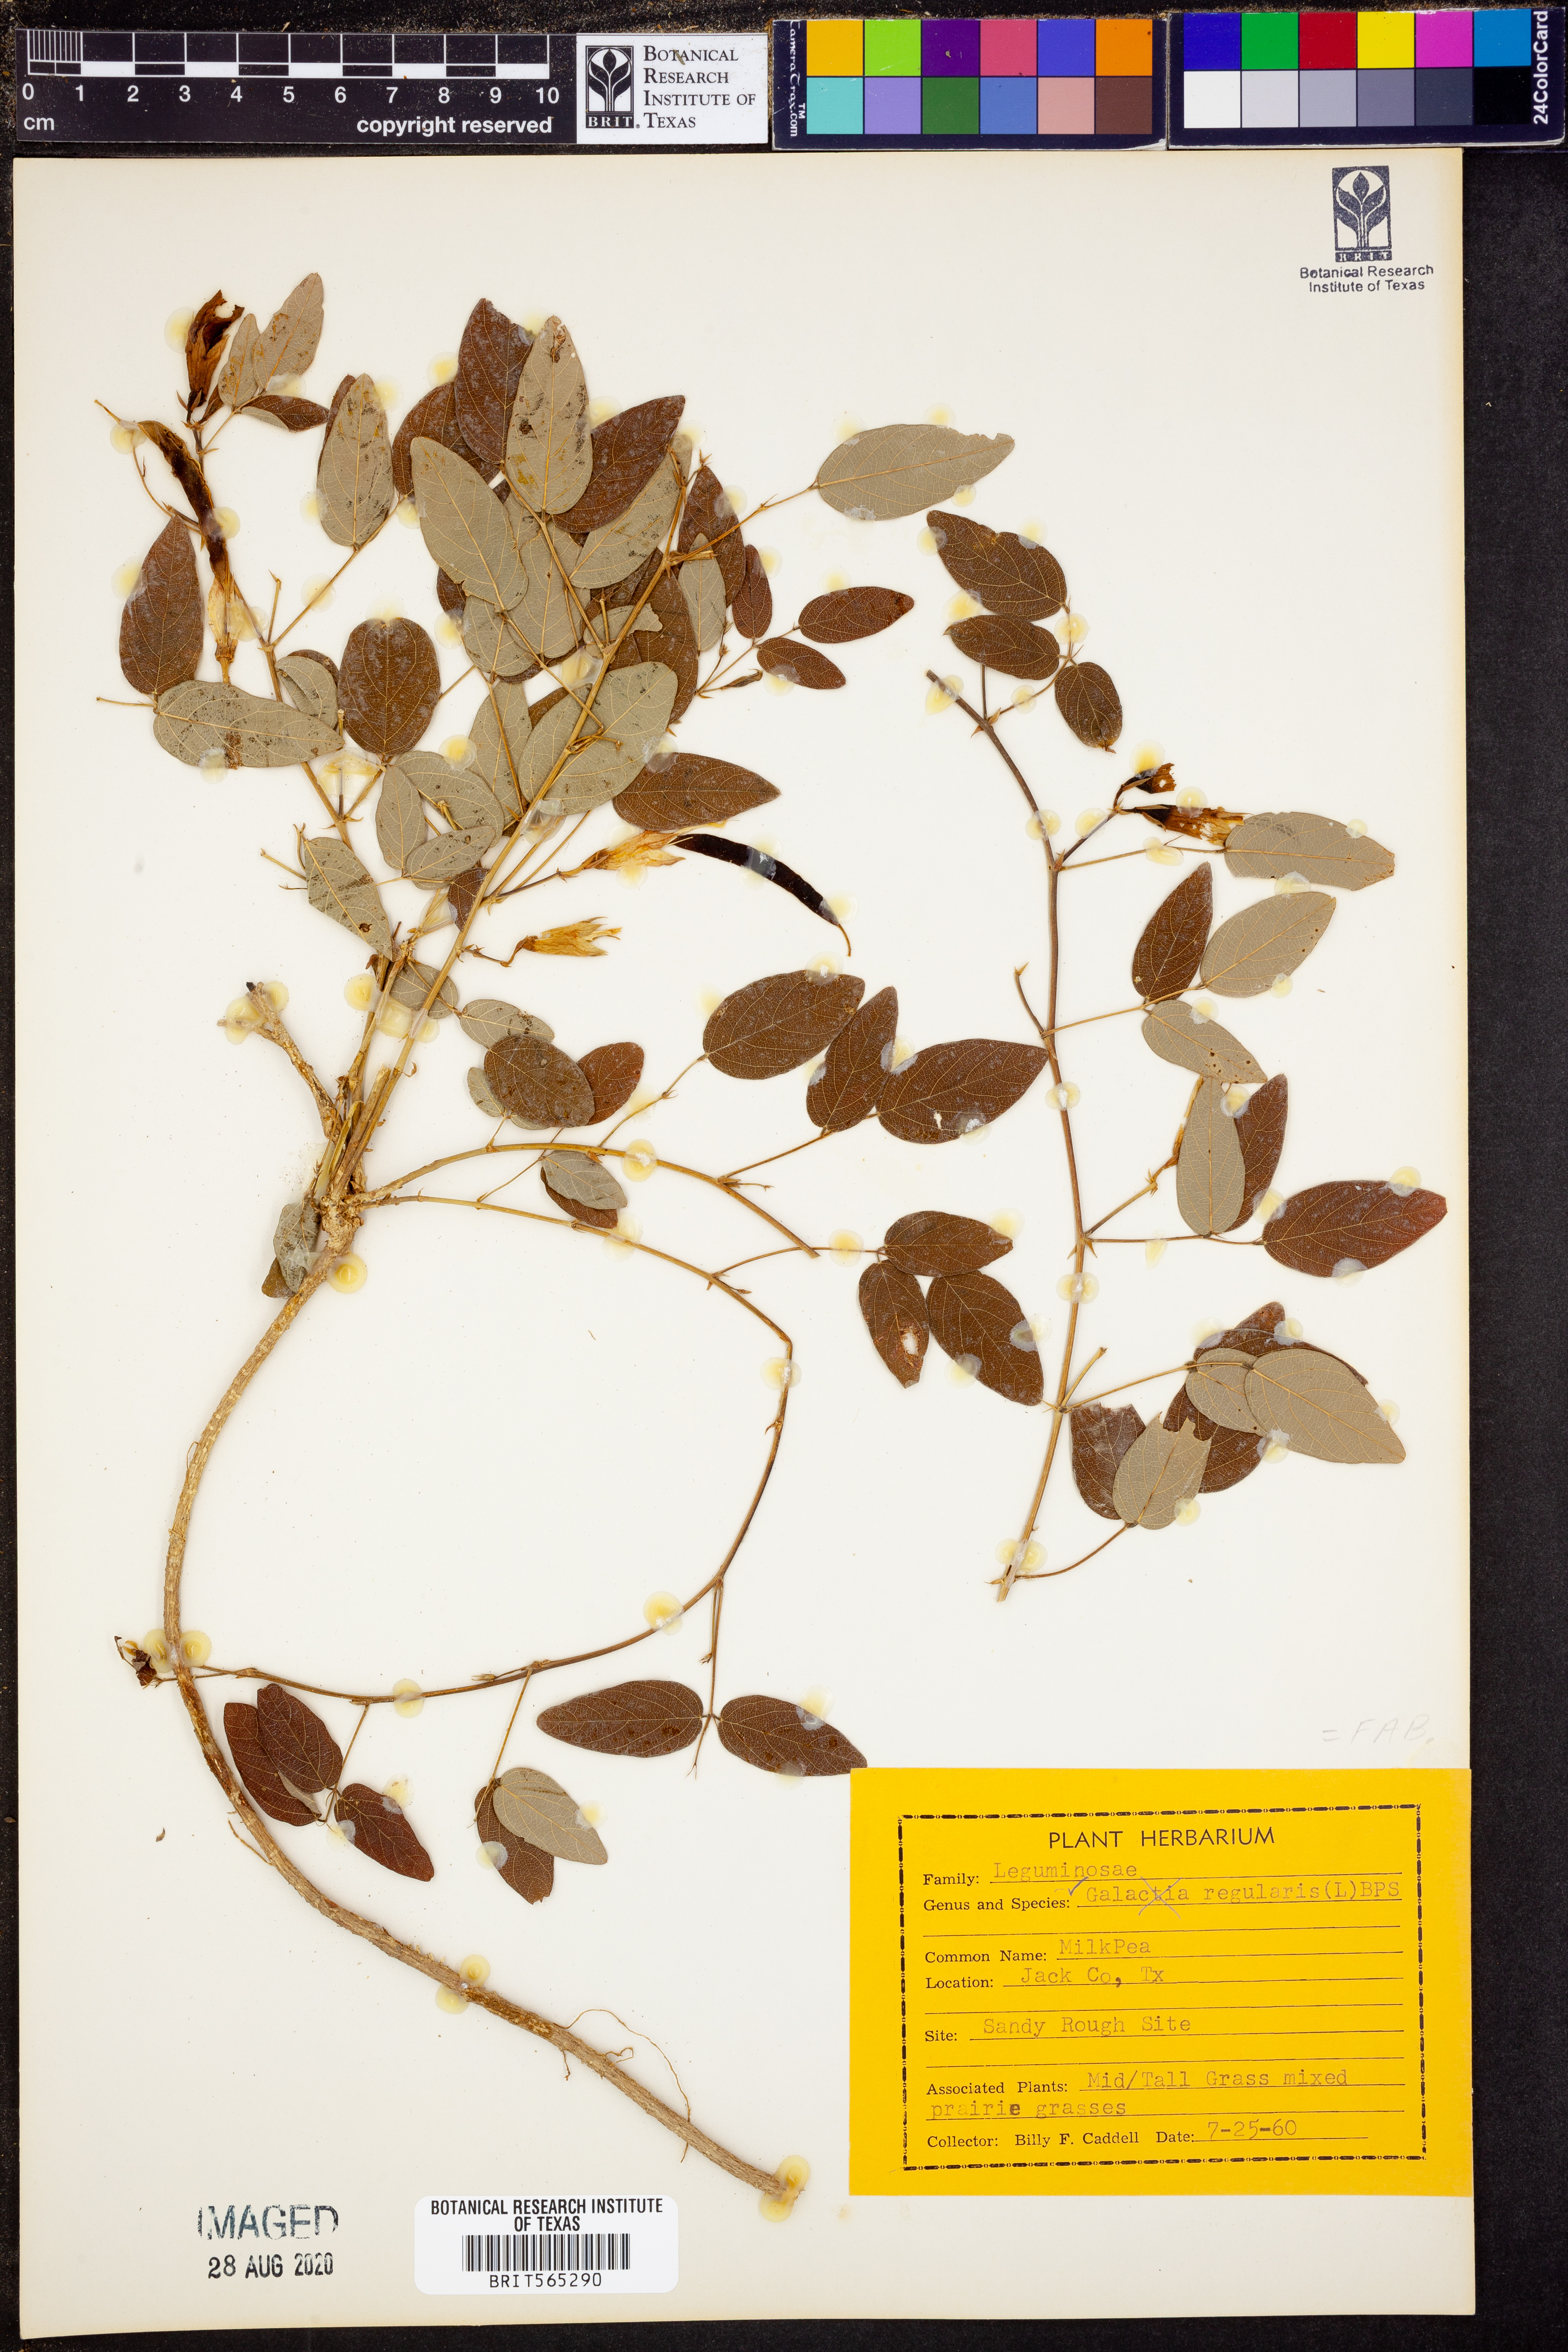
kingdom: Plantae
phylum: Tracheophyta
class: Magnoliopsida
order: Fabales
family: Fabaceae
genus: Galactia
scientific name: Galactia regularis
